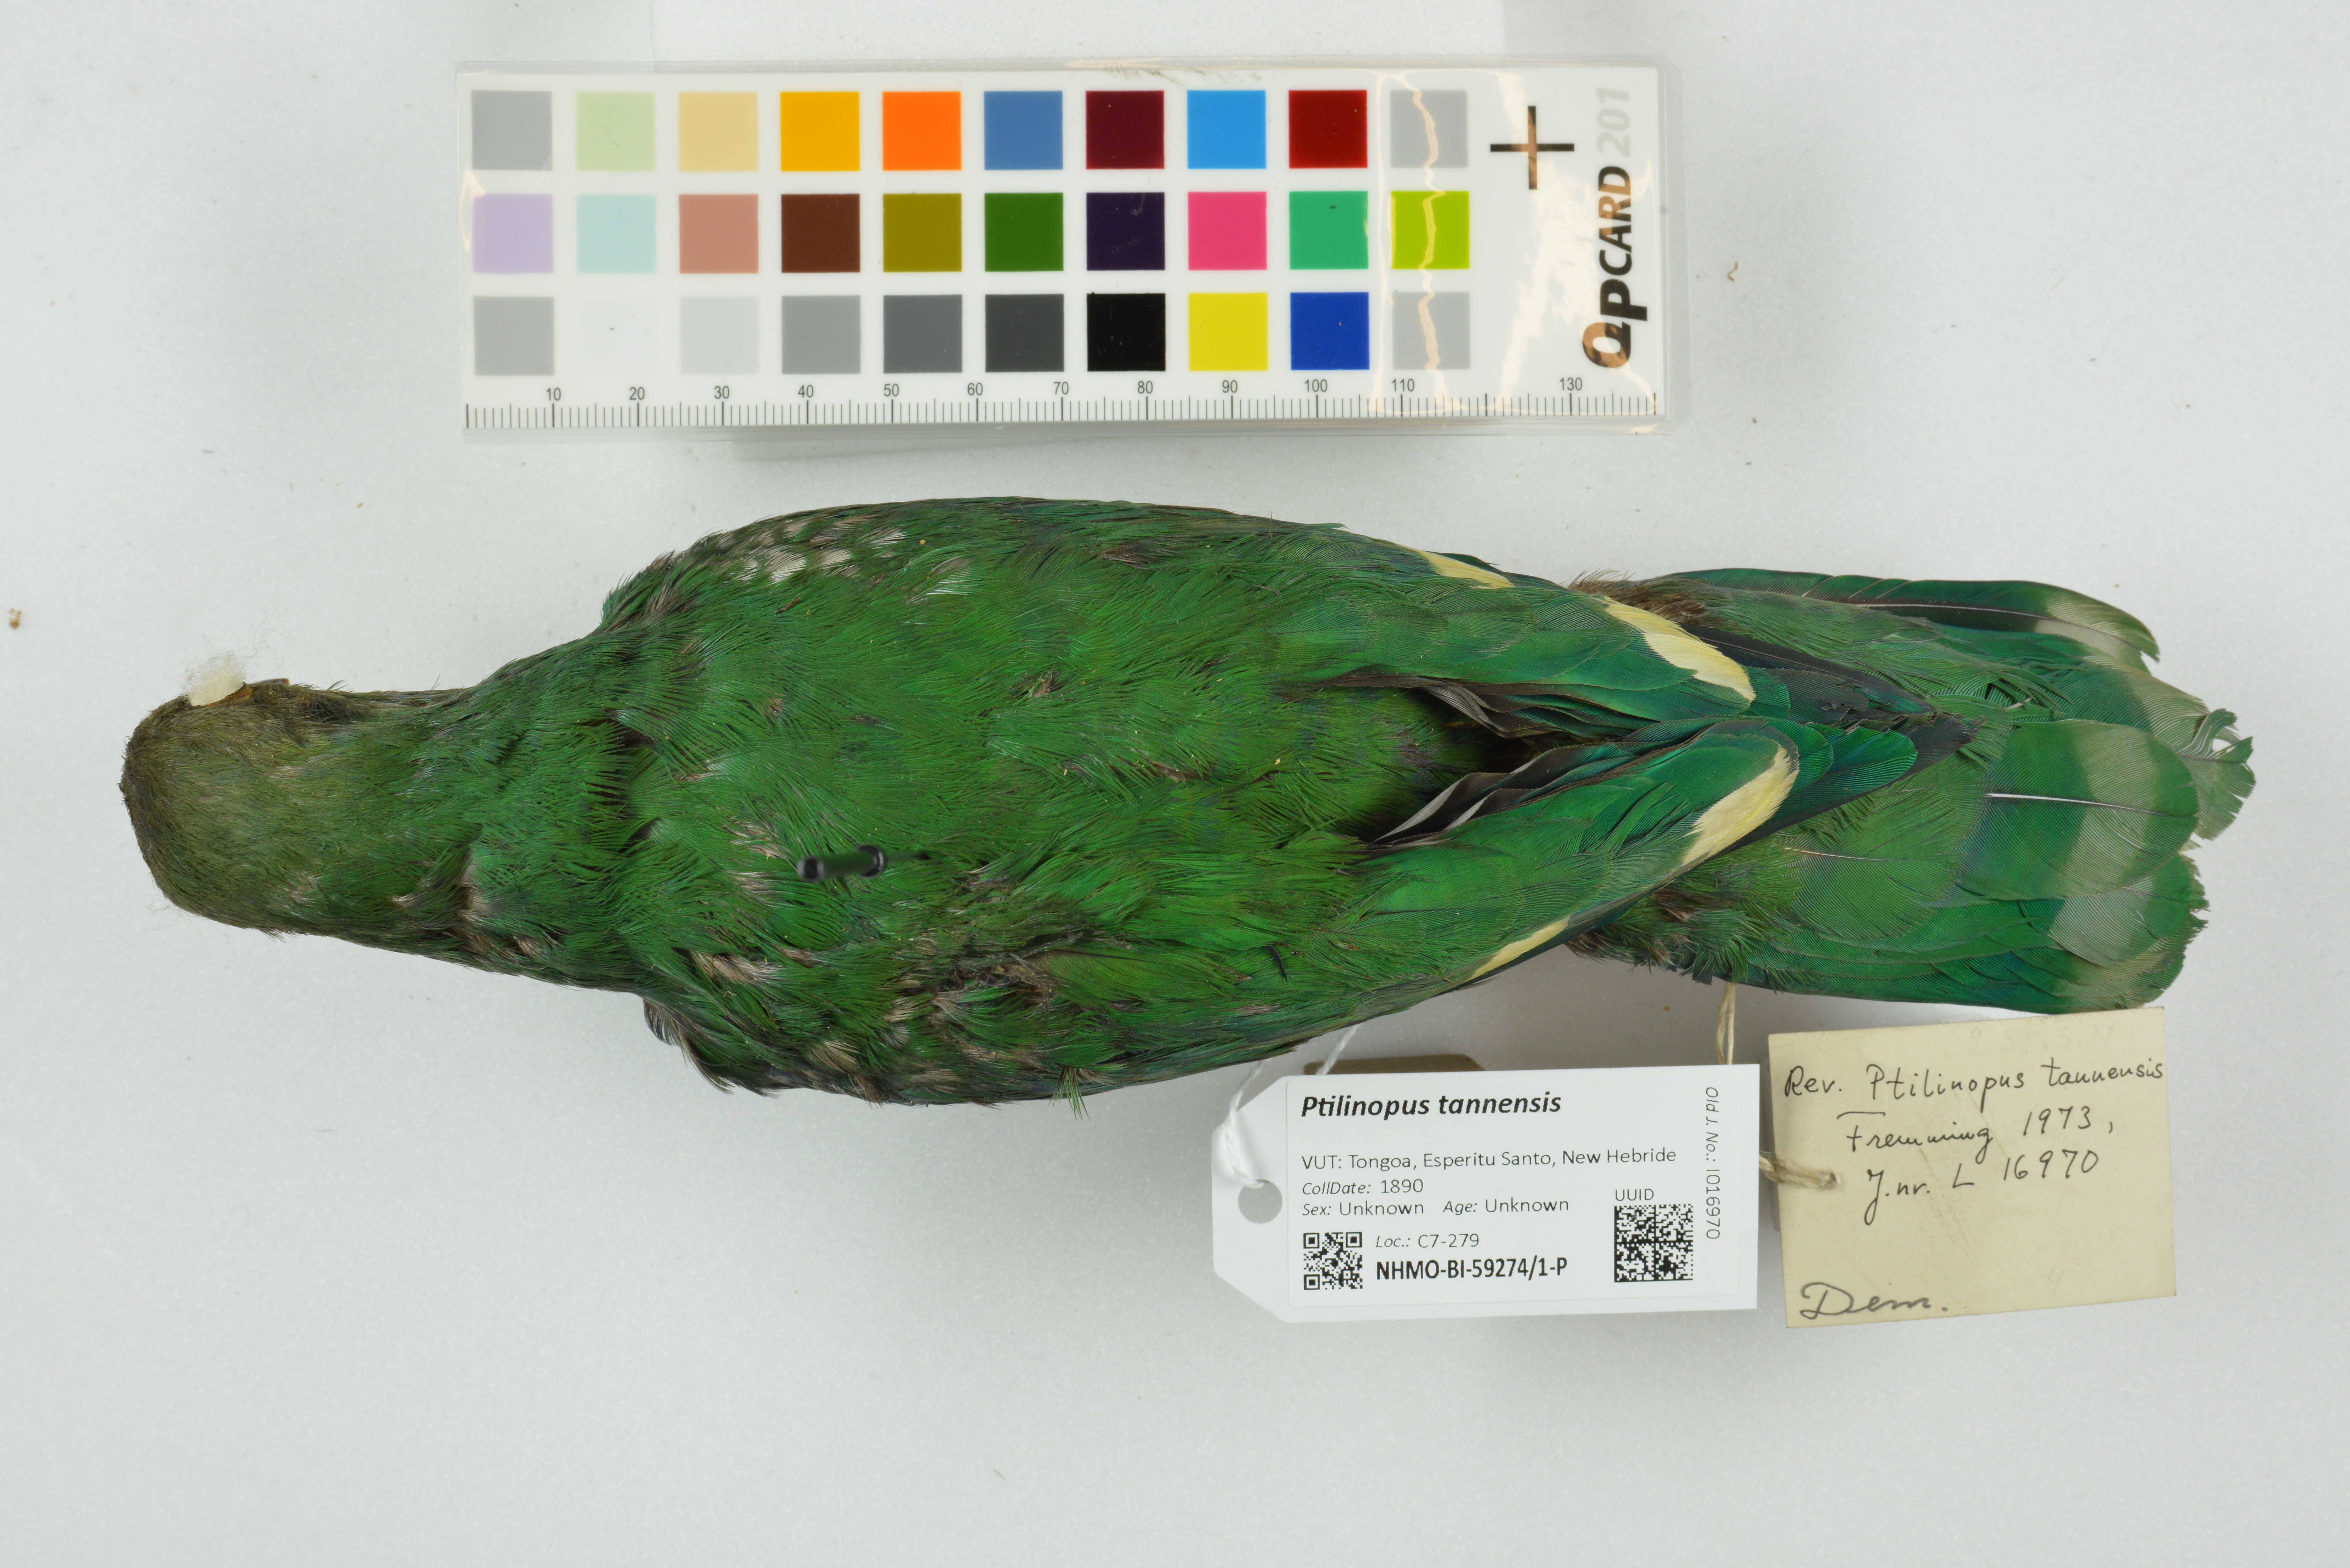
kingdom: Animalia
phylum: Chordata
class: Aves
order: Columbiformes
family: Columbidae
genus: Ptilinopus
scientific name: Ptilinopus tannensis
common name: Tanna fruit dove
